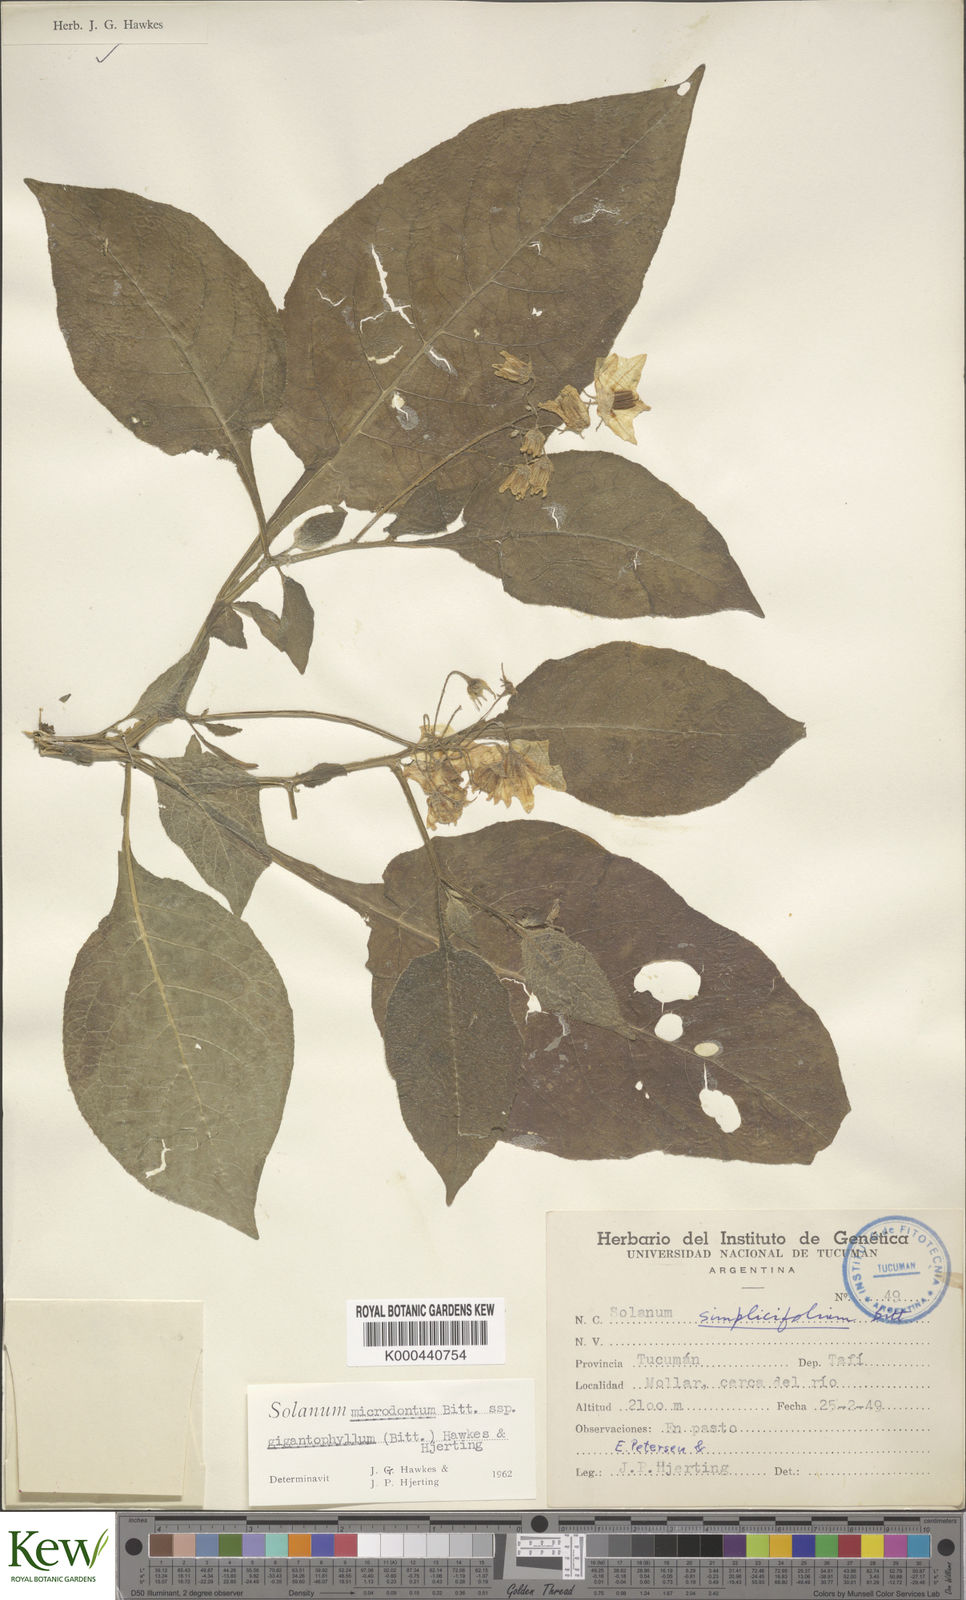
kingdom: Plantae
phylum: Tracheophyta
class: Magnoliopsida
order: Solanales
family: Solanaceae
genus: Solanum
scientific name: Solanum microdontum
